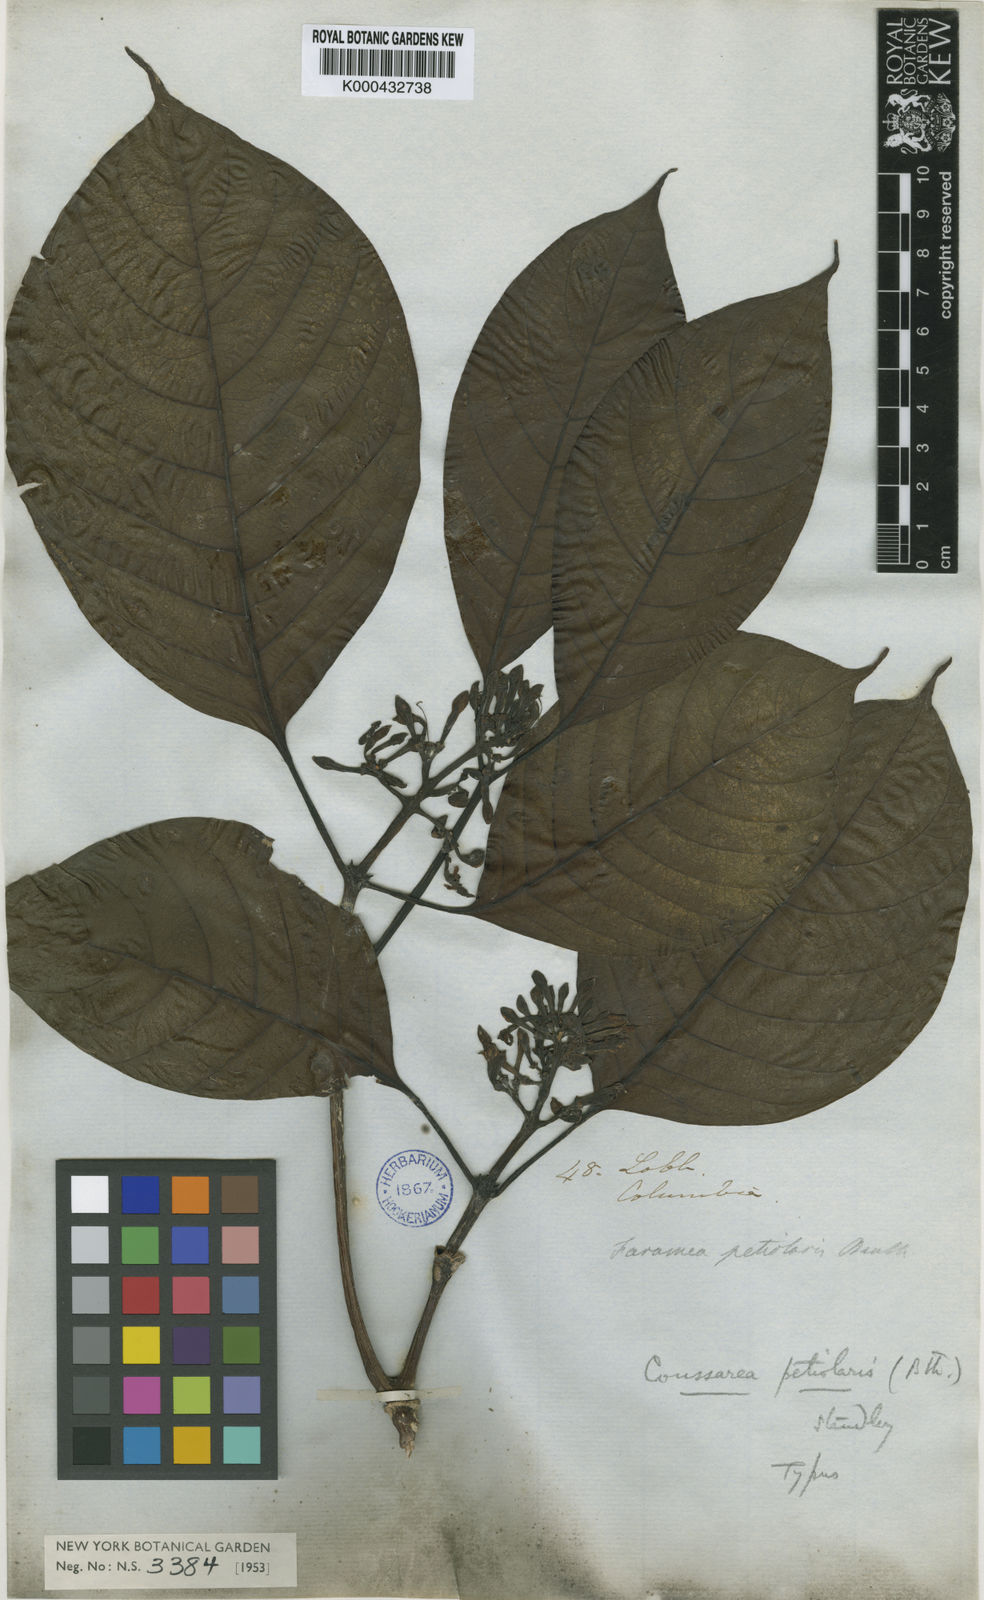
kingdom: Plantae
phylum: Tracheophyta
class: Magnoliopsida
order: Gentianales
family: Rubiaceae
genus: Coussarea
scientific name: Coussarea petiolaris
